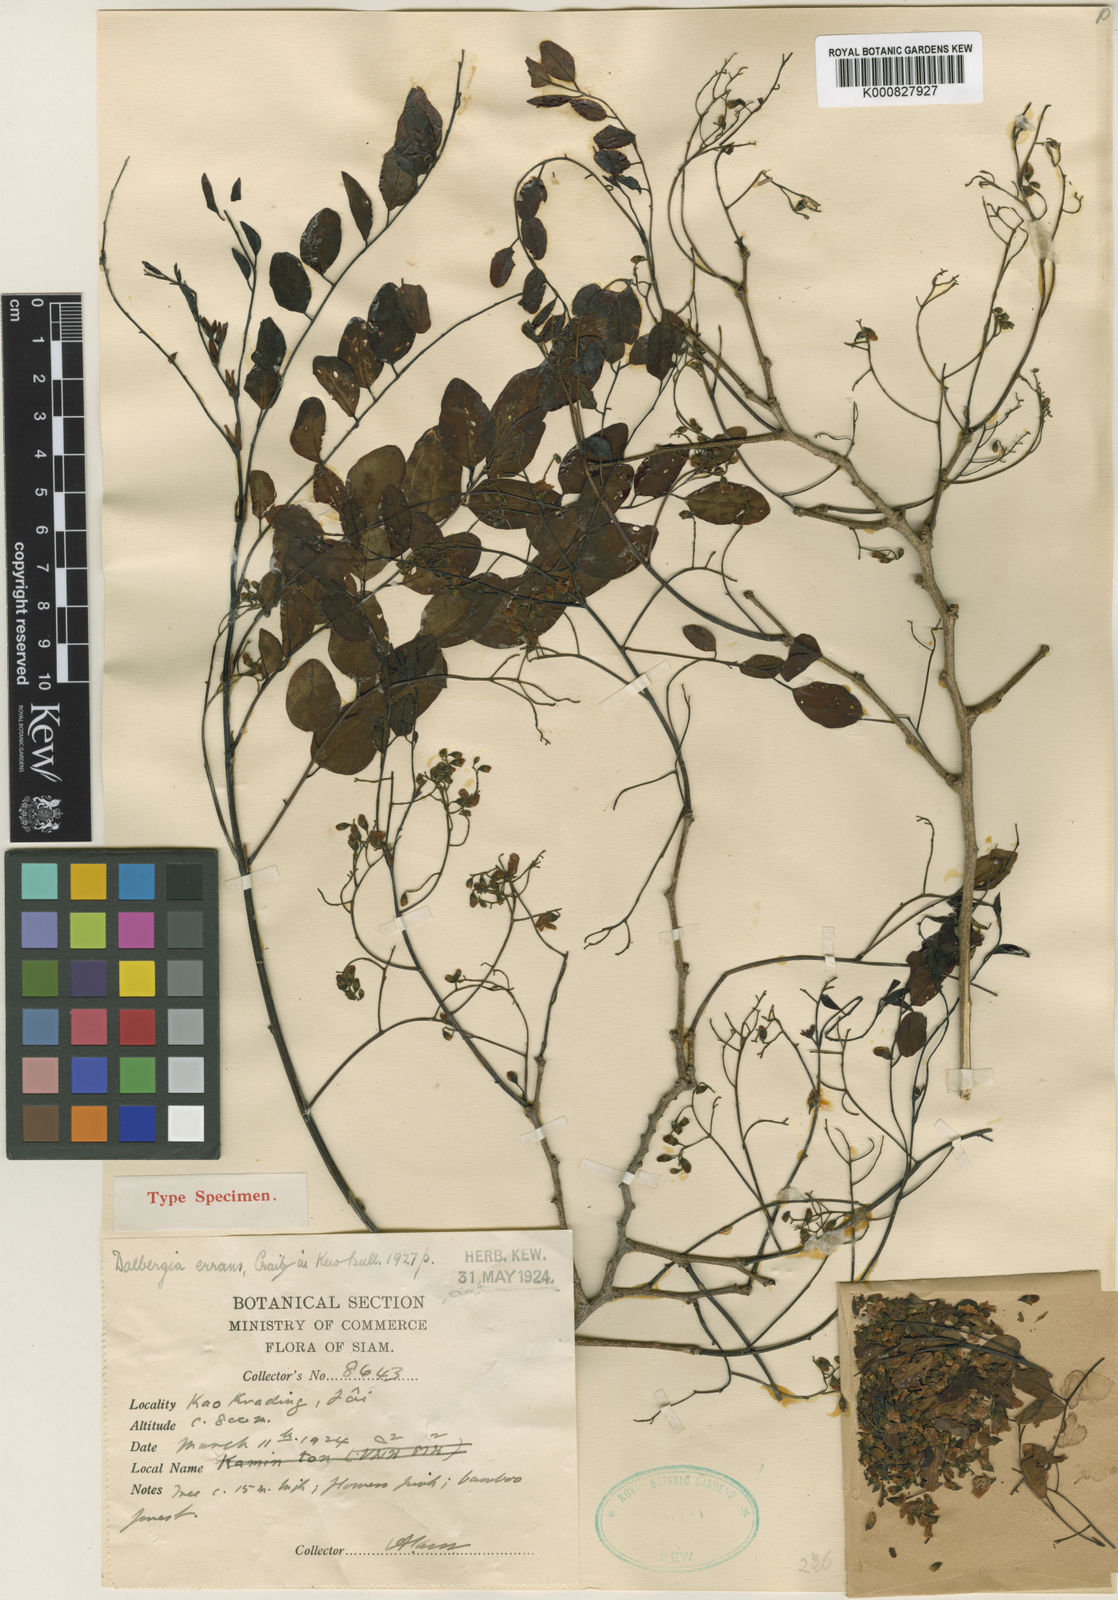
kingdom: Plantae
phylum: Tracheophyta
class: Magnoliopsida
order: Fabales
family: Fabaceae
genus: Dalbergia
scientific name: Dalbergia lanceolaria
